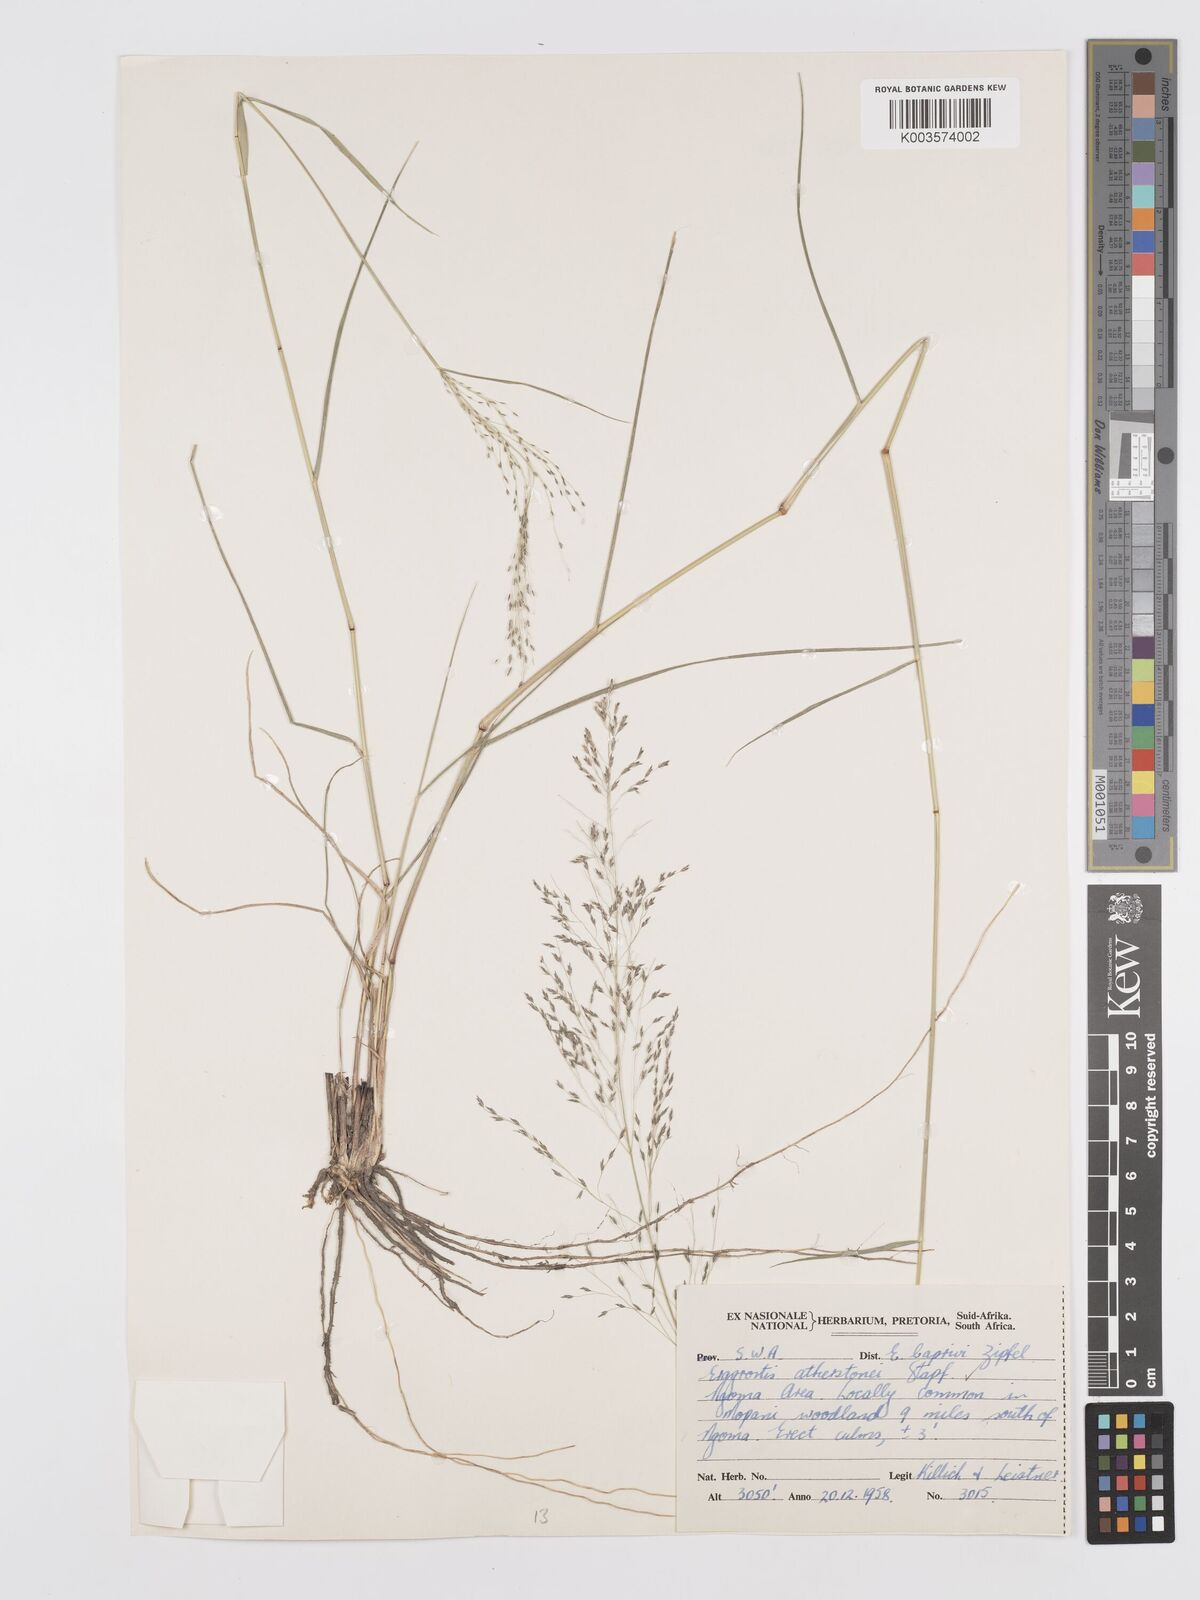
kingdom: Plantae
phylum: Tracheophyta
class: Liliopsida
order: Poales
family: Poaceae
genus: Eragrostis
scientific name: Eragrostis cylindriflora
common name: Cylinderflower lovegrass
